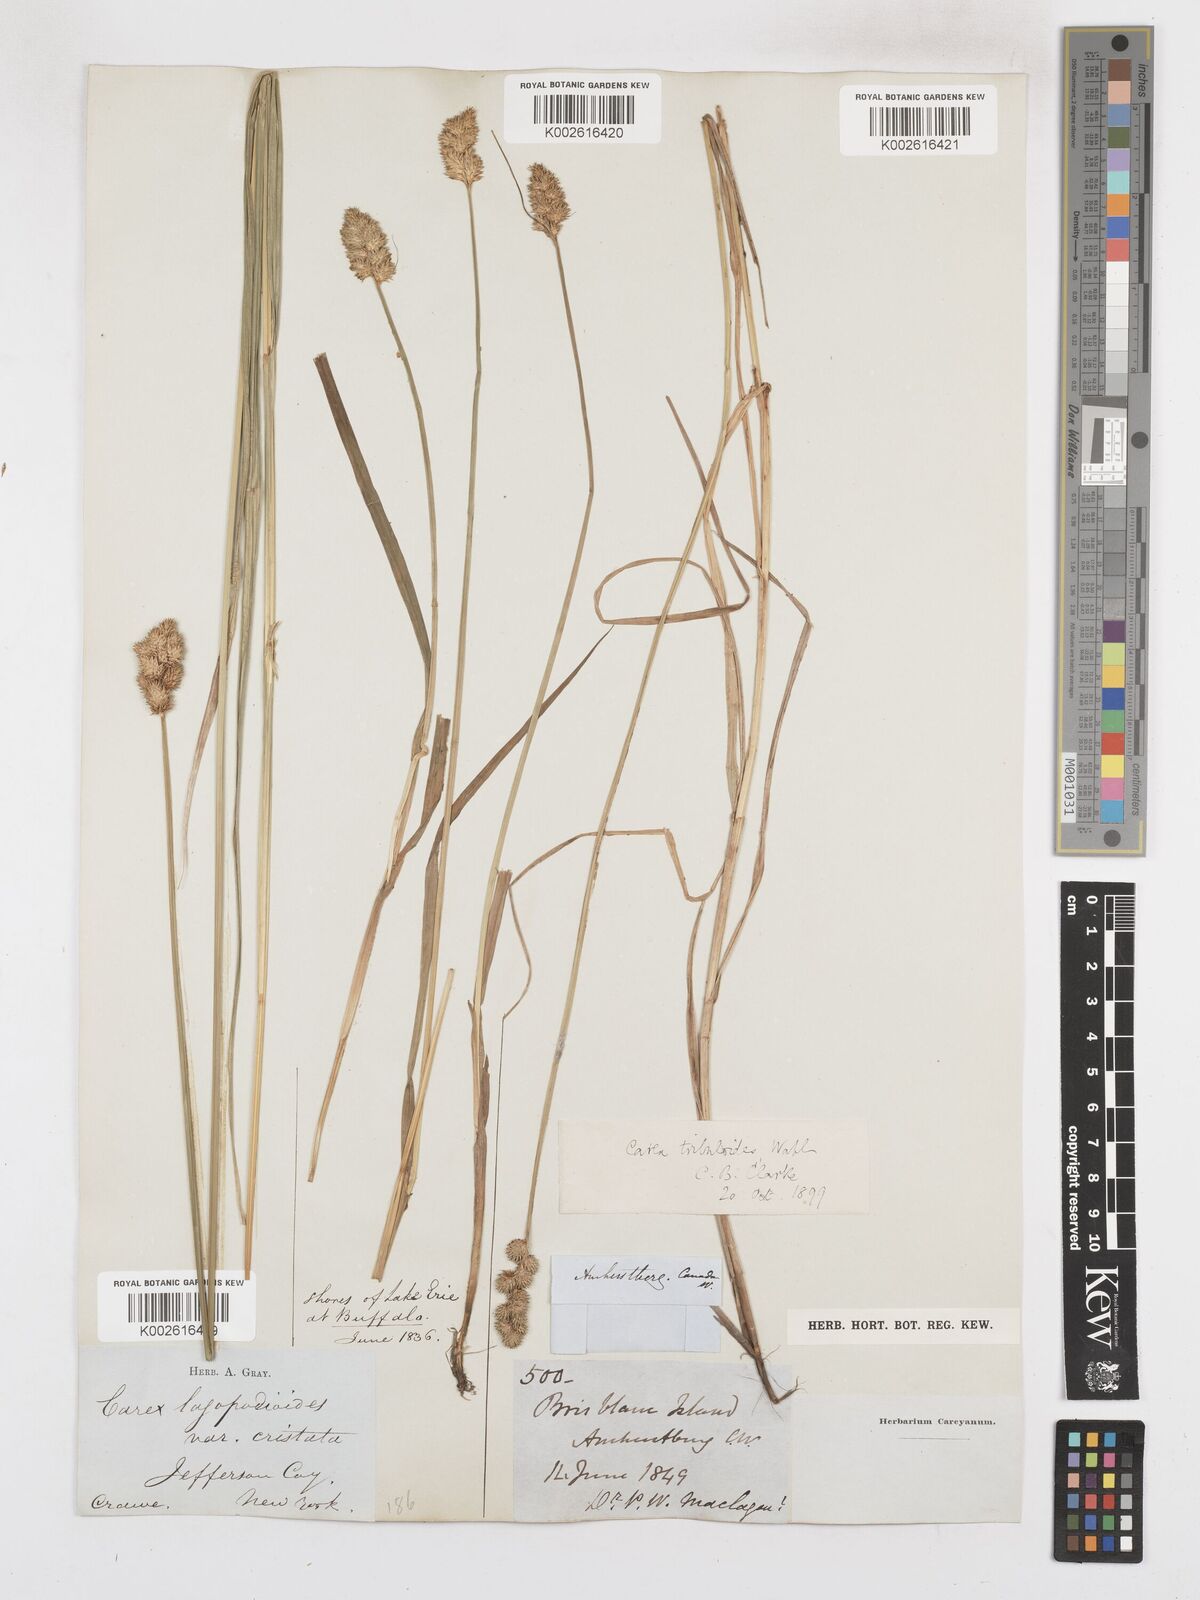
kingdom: Plantae
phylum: Tracheophyta
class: Liliopsida
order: Poales
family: Cyperaceae
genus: Carex
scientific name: Carex tribuloides
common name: Blunt broom sedge
